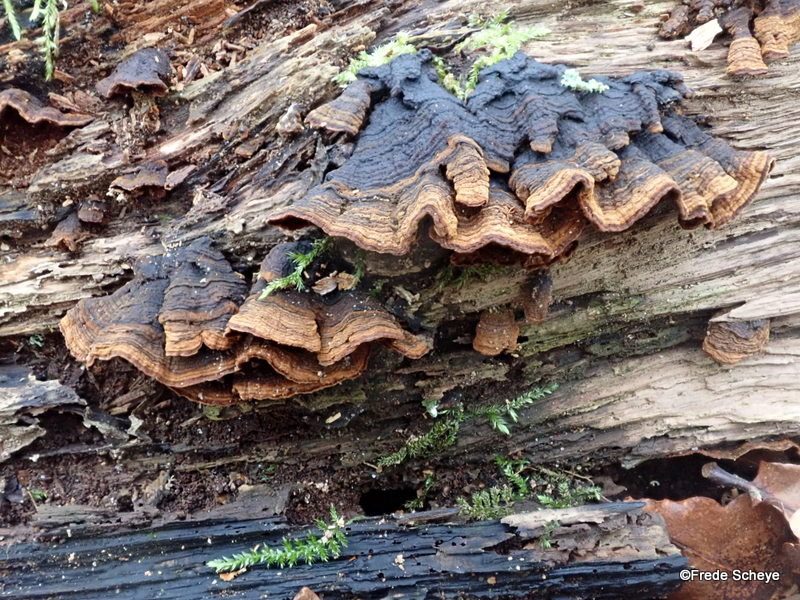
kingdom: Fungi
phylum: Basidiomycota
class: Agaricomycetes
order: Hymenochaetales
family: Hymenochaetaceae
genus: Hymenochaete
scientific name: Hymenochaete rubiginosa
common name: stiv ruslædersvamp
